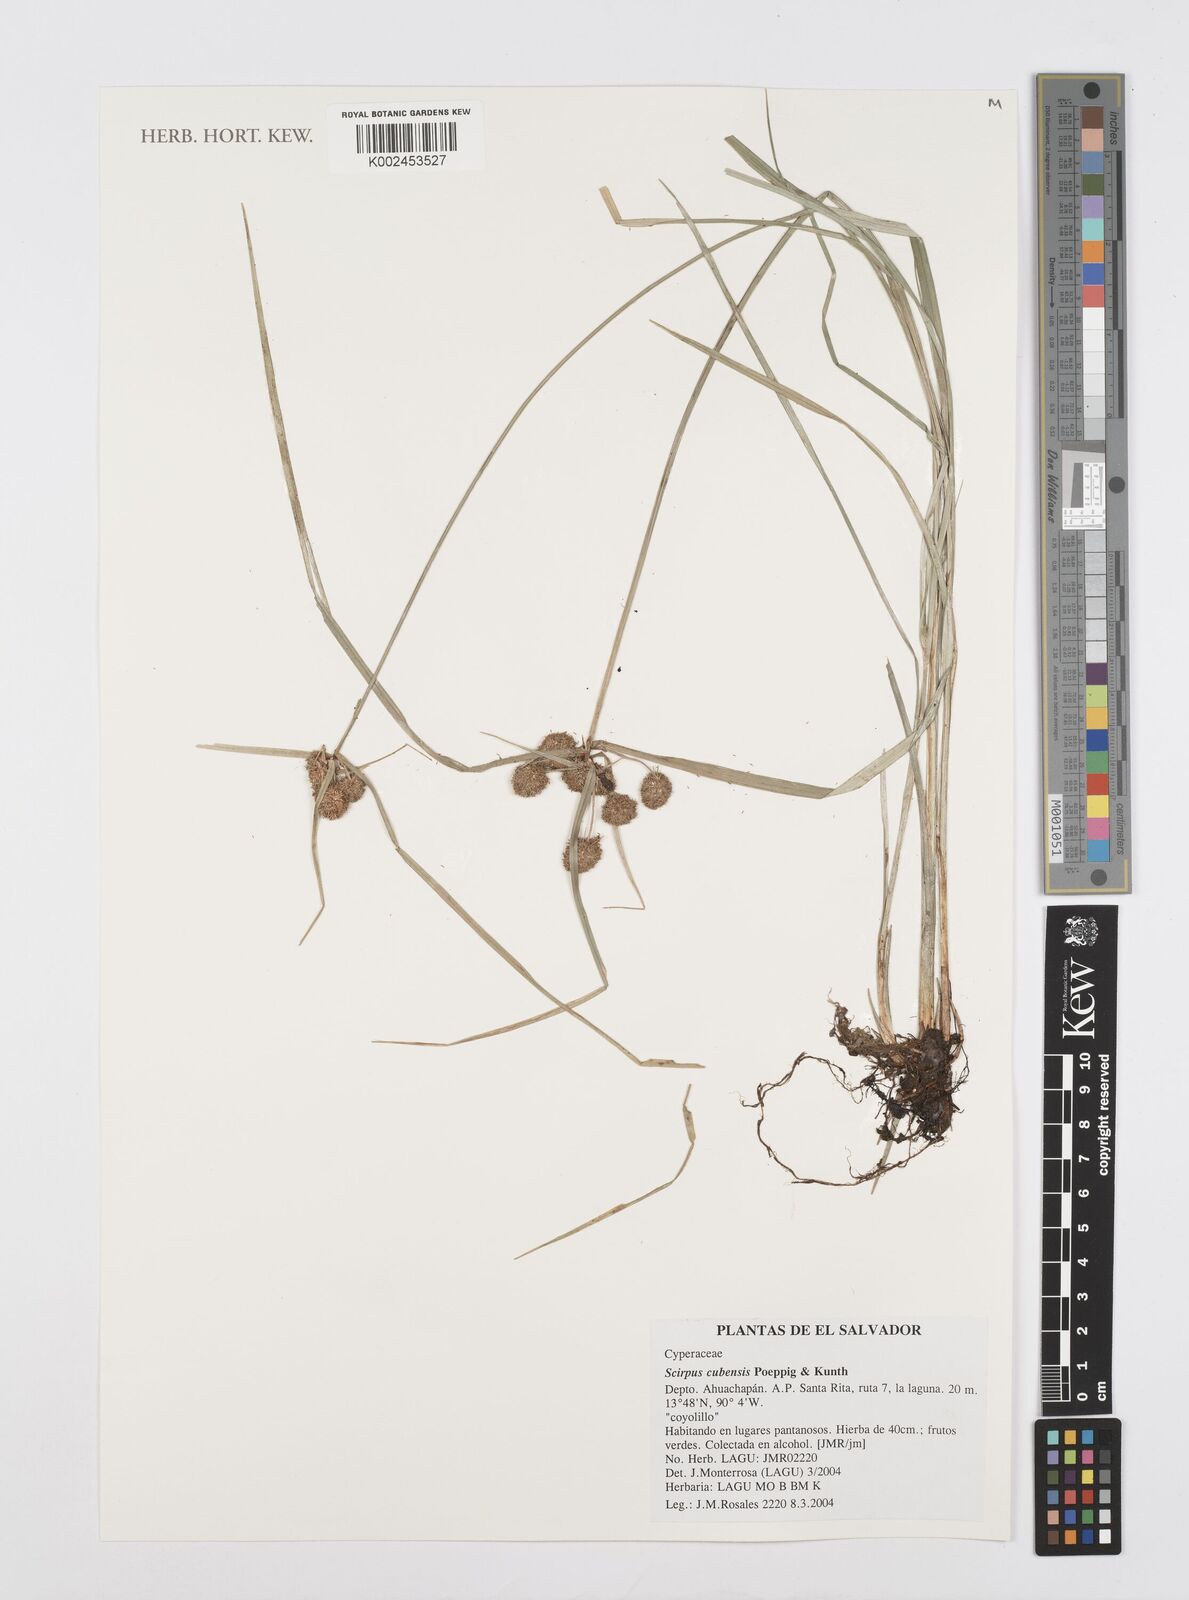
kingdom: Plantae
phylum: Tracheophyta
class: Liliopsida
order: Poales
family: Cyperaceae
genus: Cyperus
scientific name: Cyperus elegans
